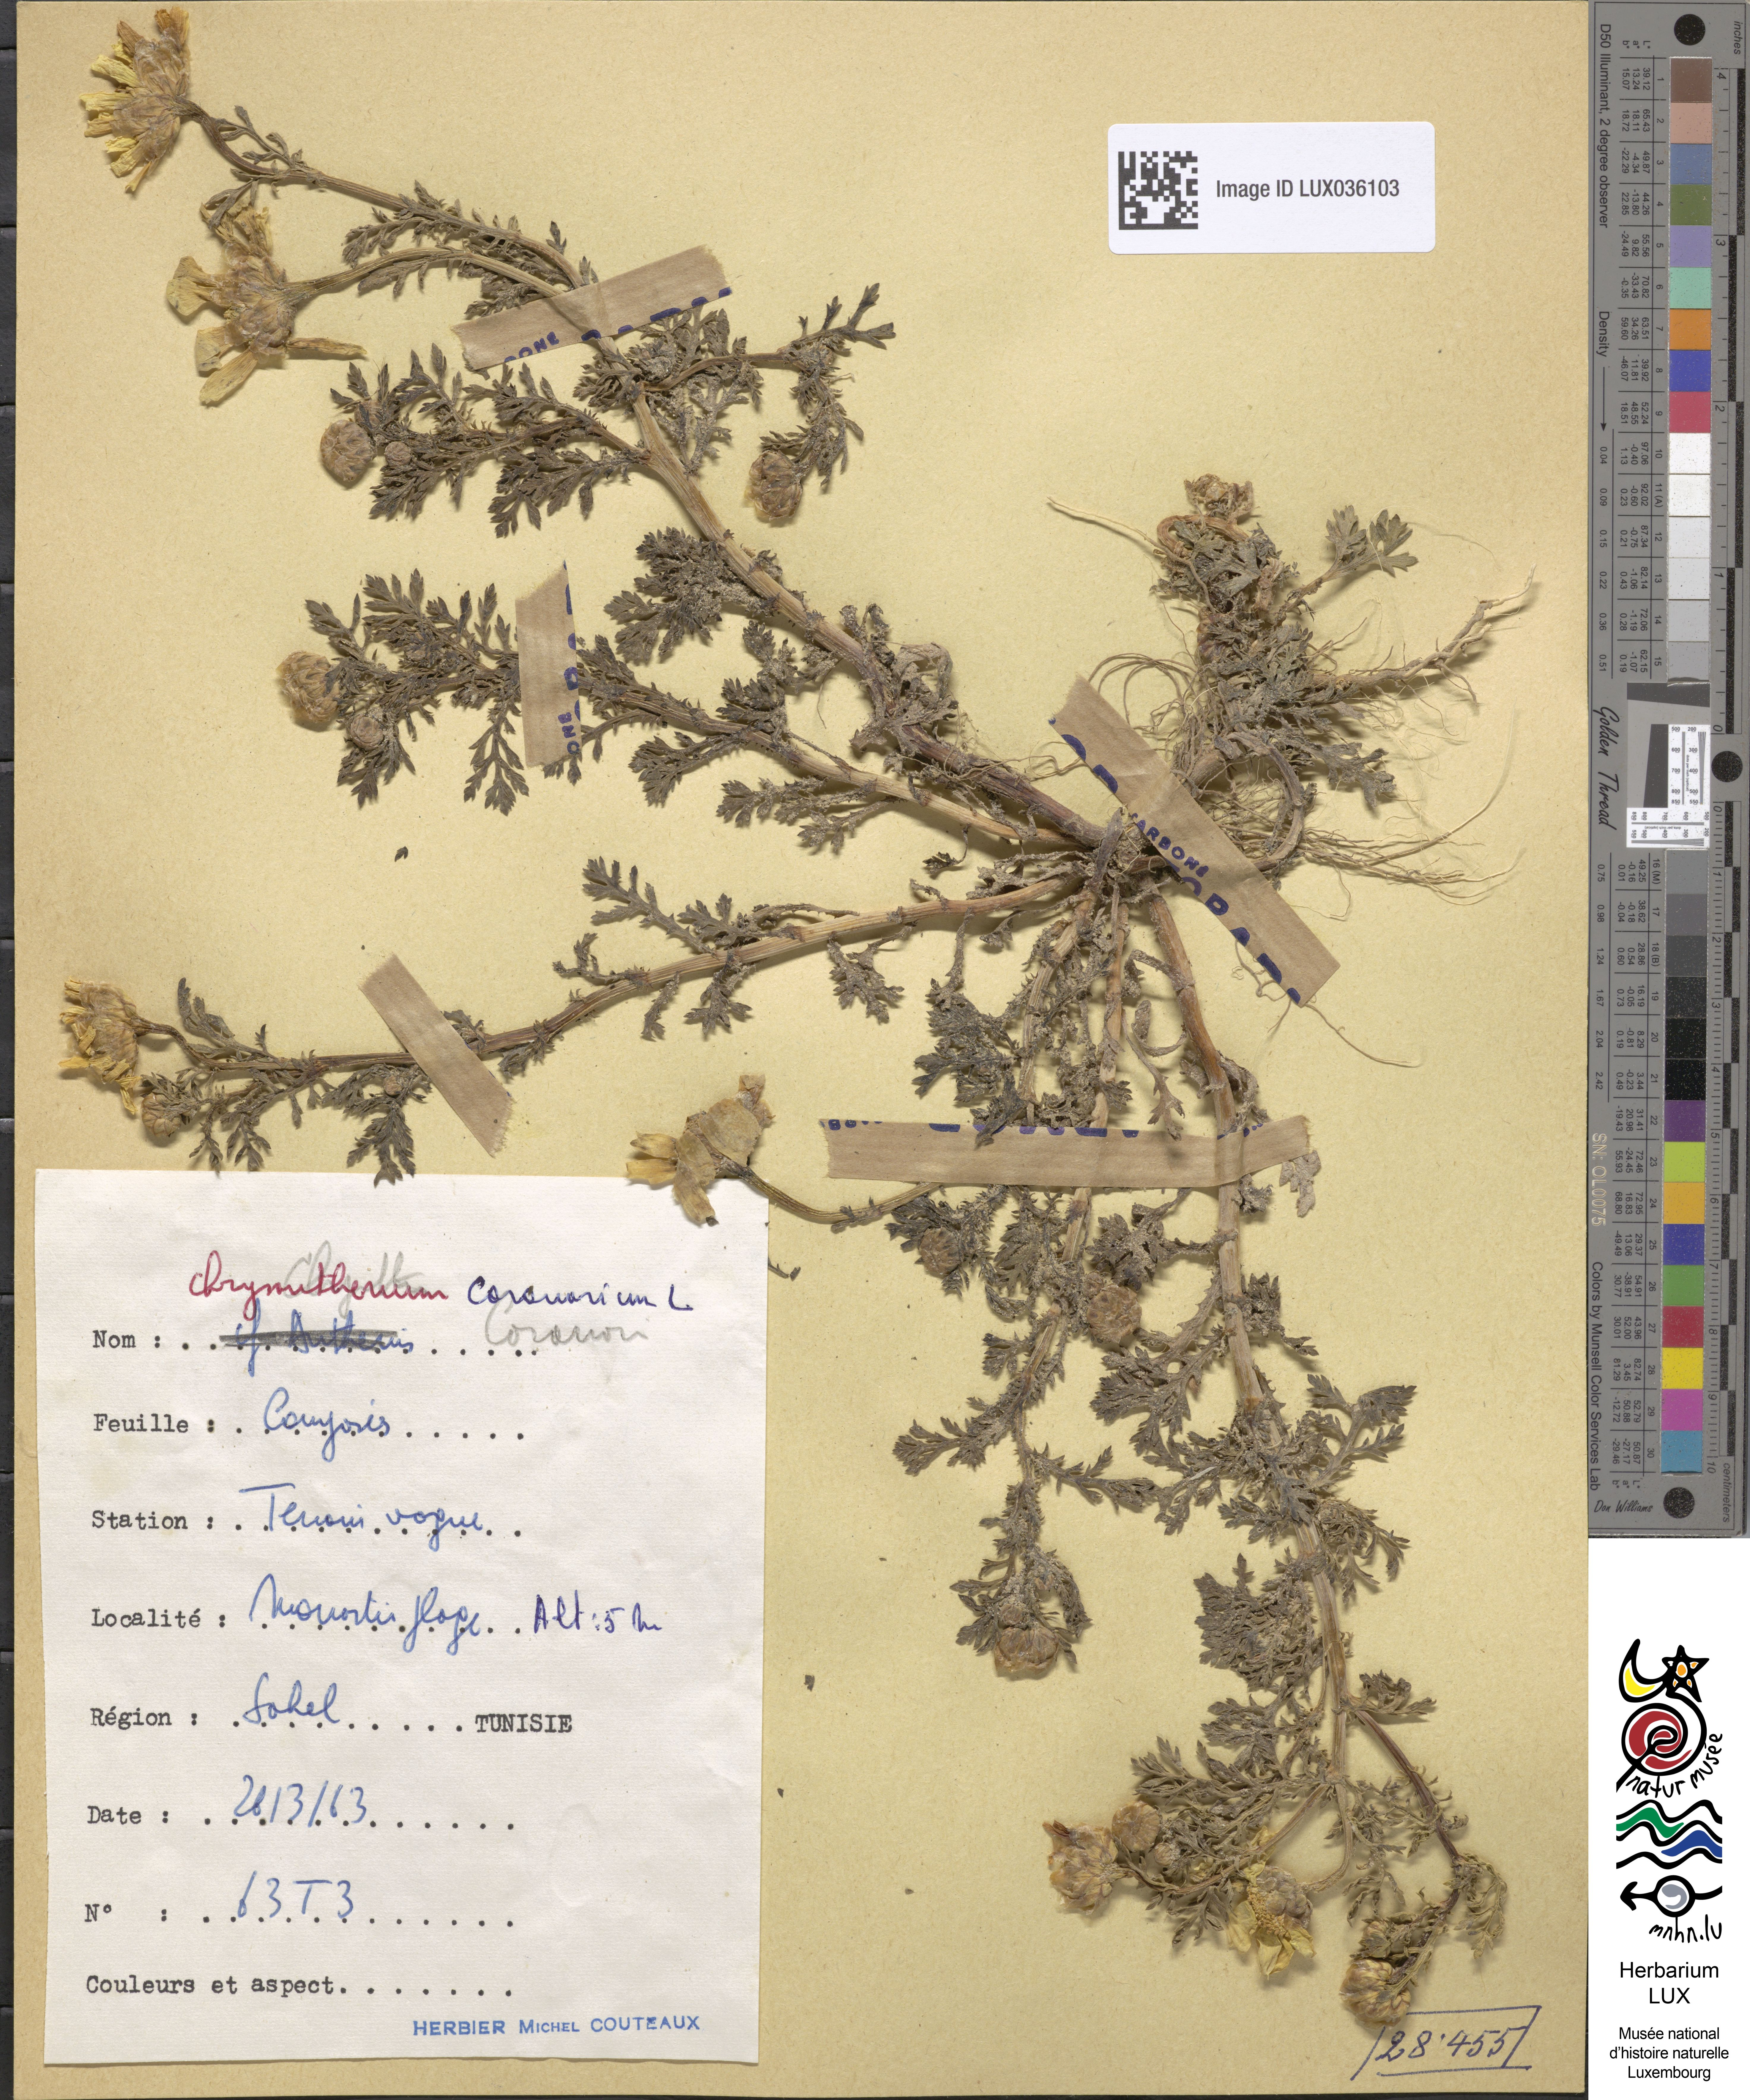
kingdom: Plantae
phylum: Tracheophyta
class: Magnoliopsida
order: Asterales
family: Asteraceae
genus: Glebionis
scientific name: Glebionis coronaria
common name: Crowndaisy
